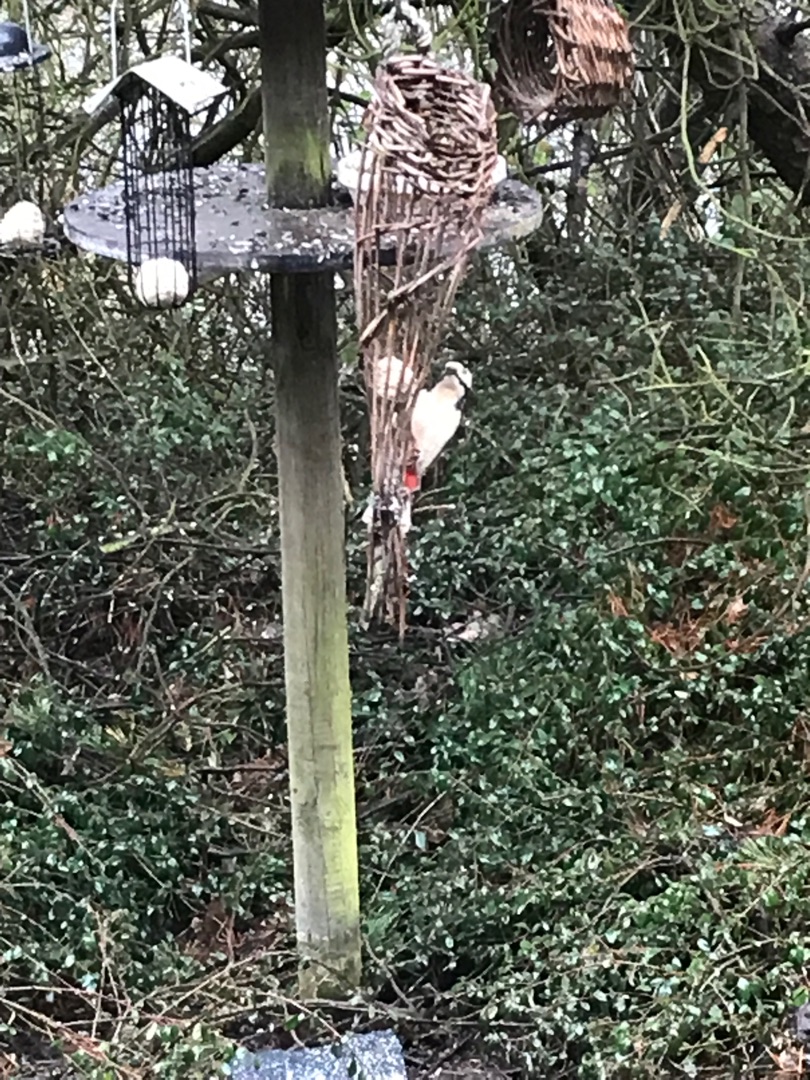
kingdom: Animalia
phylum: Chordata
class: Aves
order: Piciformes
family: Picidae
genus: Dendrocopos
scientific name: Dendrocopos major
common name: Stor flagspætte
